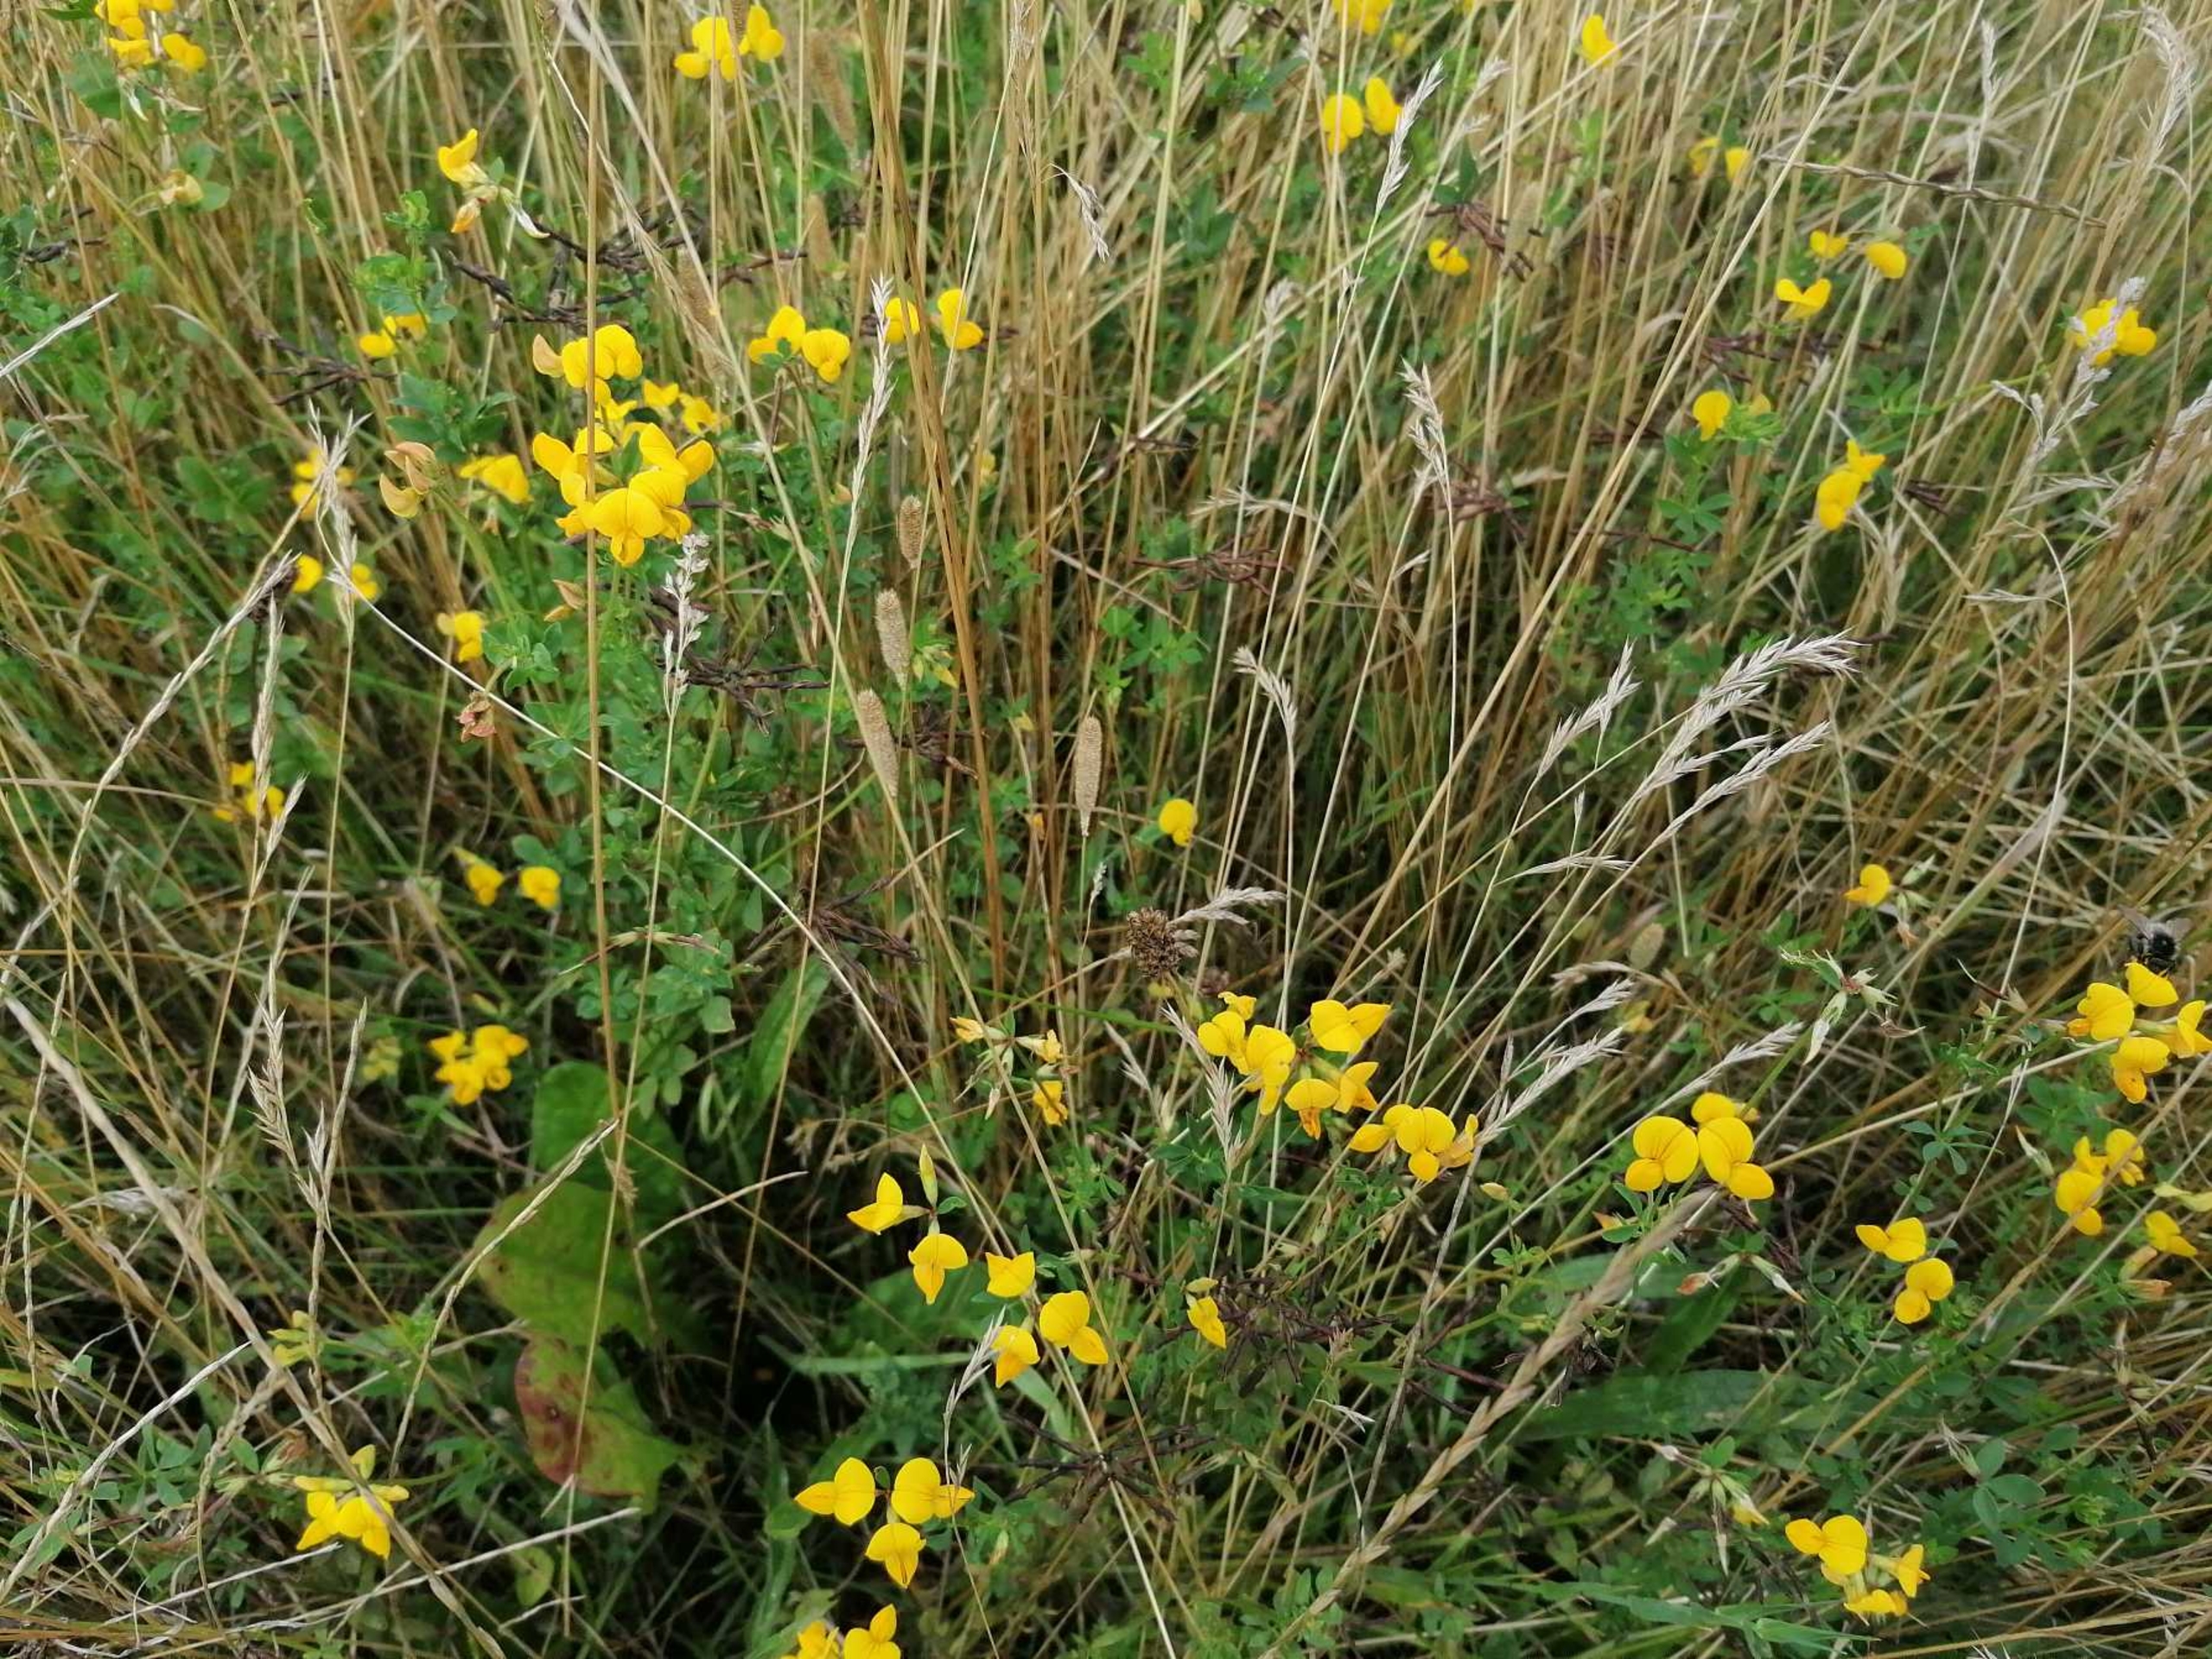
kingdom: Plantae
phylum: Tracheophyta
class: Magnoliopsida
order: Fabales
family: Fabaceae
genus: Lotus
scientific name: Lotus corniculatus
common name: Almindelig kællingetand
